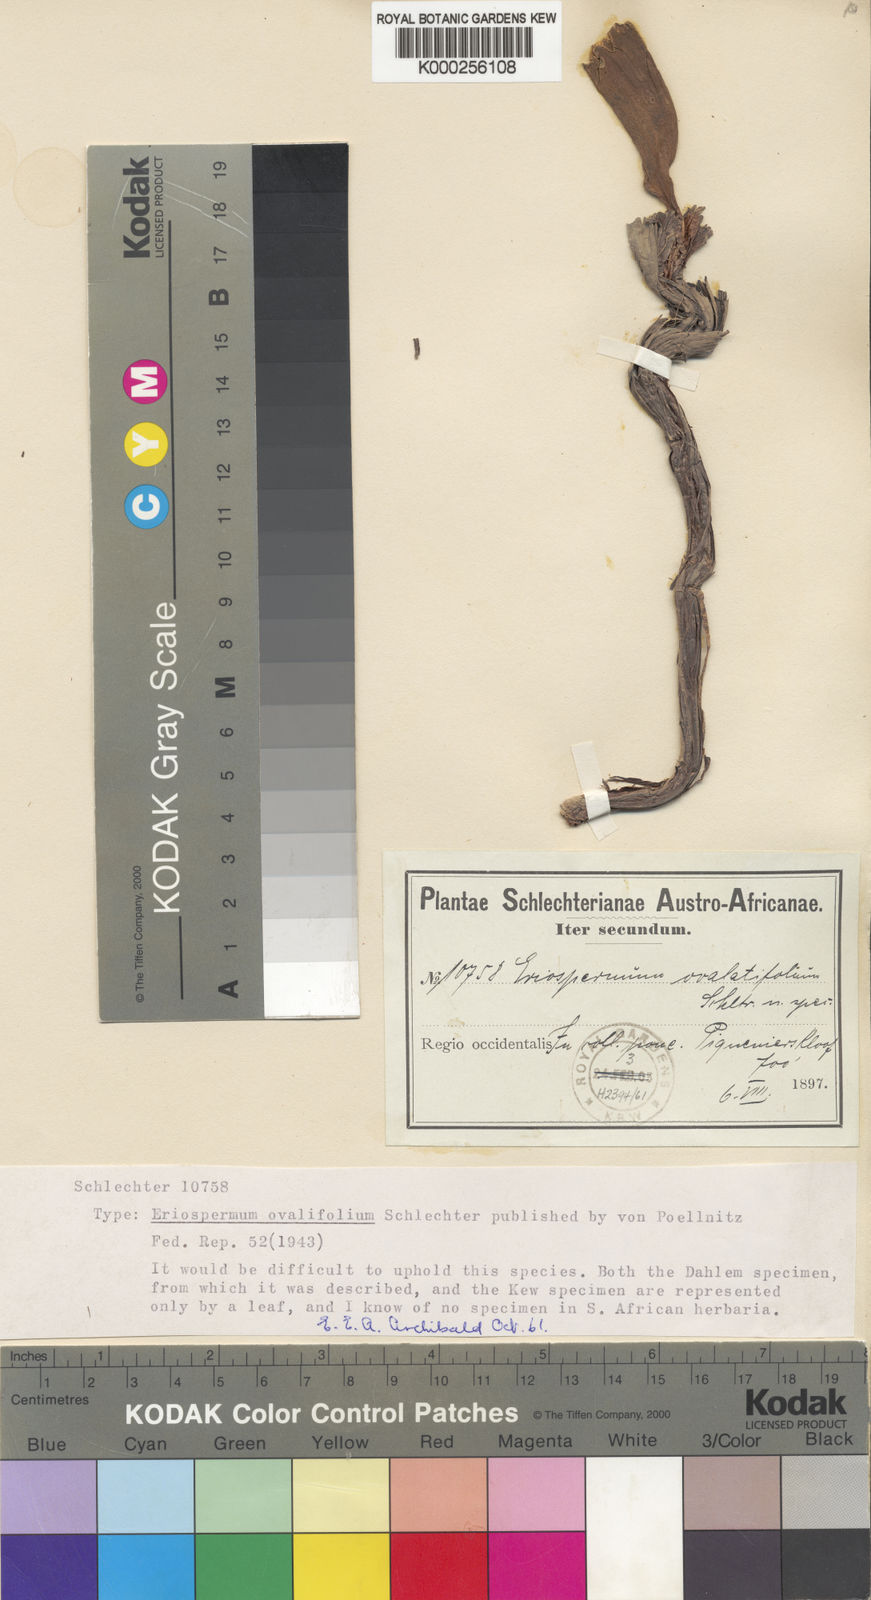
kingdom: Plantae
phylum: Tracheophyta
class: Liliopsida
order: Asparagales
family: Asparagaceae
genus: Eriospermum
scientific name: Eriospermum
